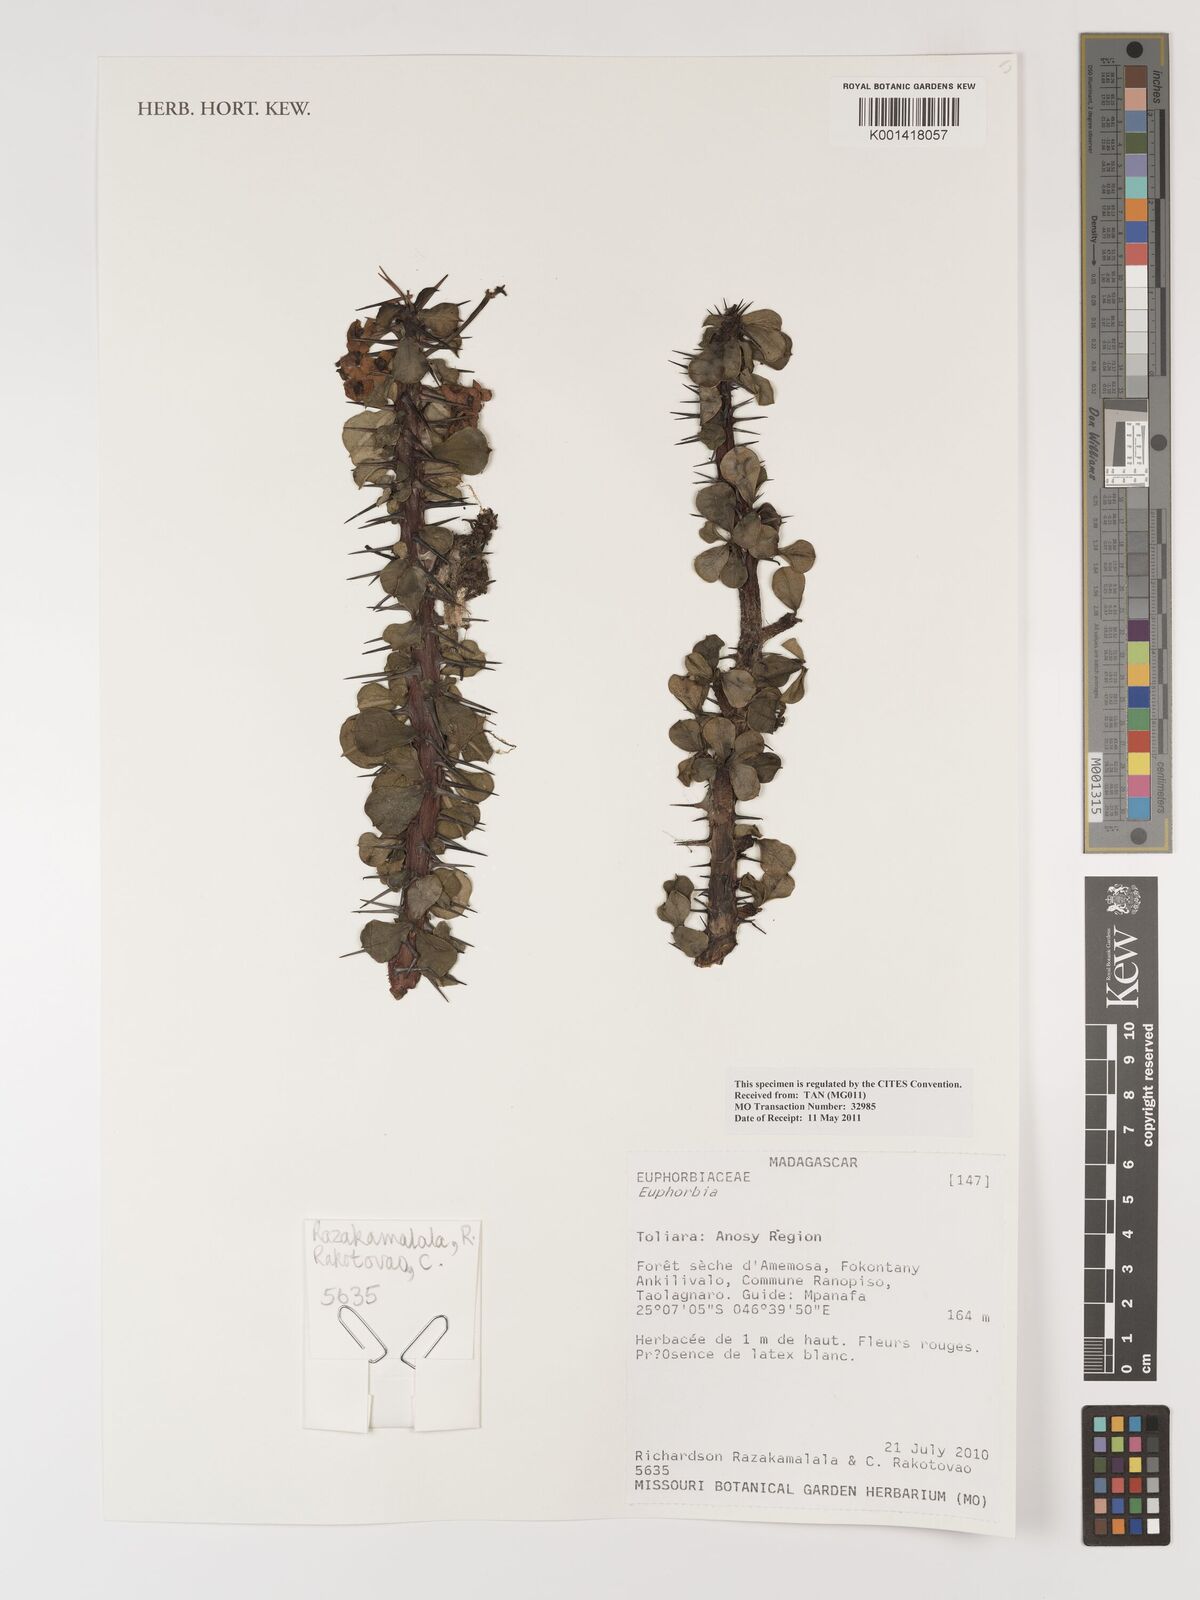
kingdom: Plantae
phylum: Tracheophyta
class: Magnoliopsida
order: Malpighiales
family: Euphorbiaceae
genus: Euphorbia
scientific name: Euphorbia
